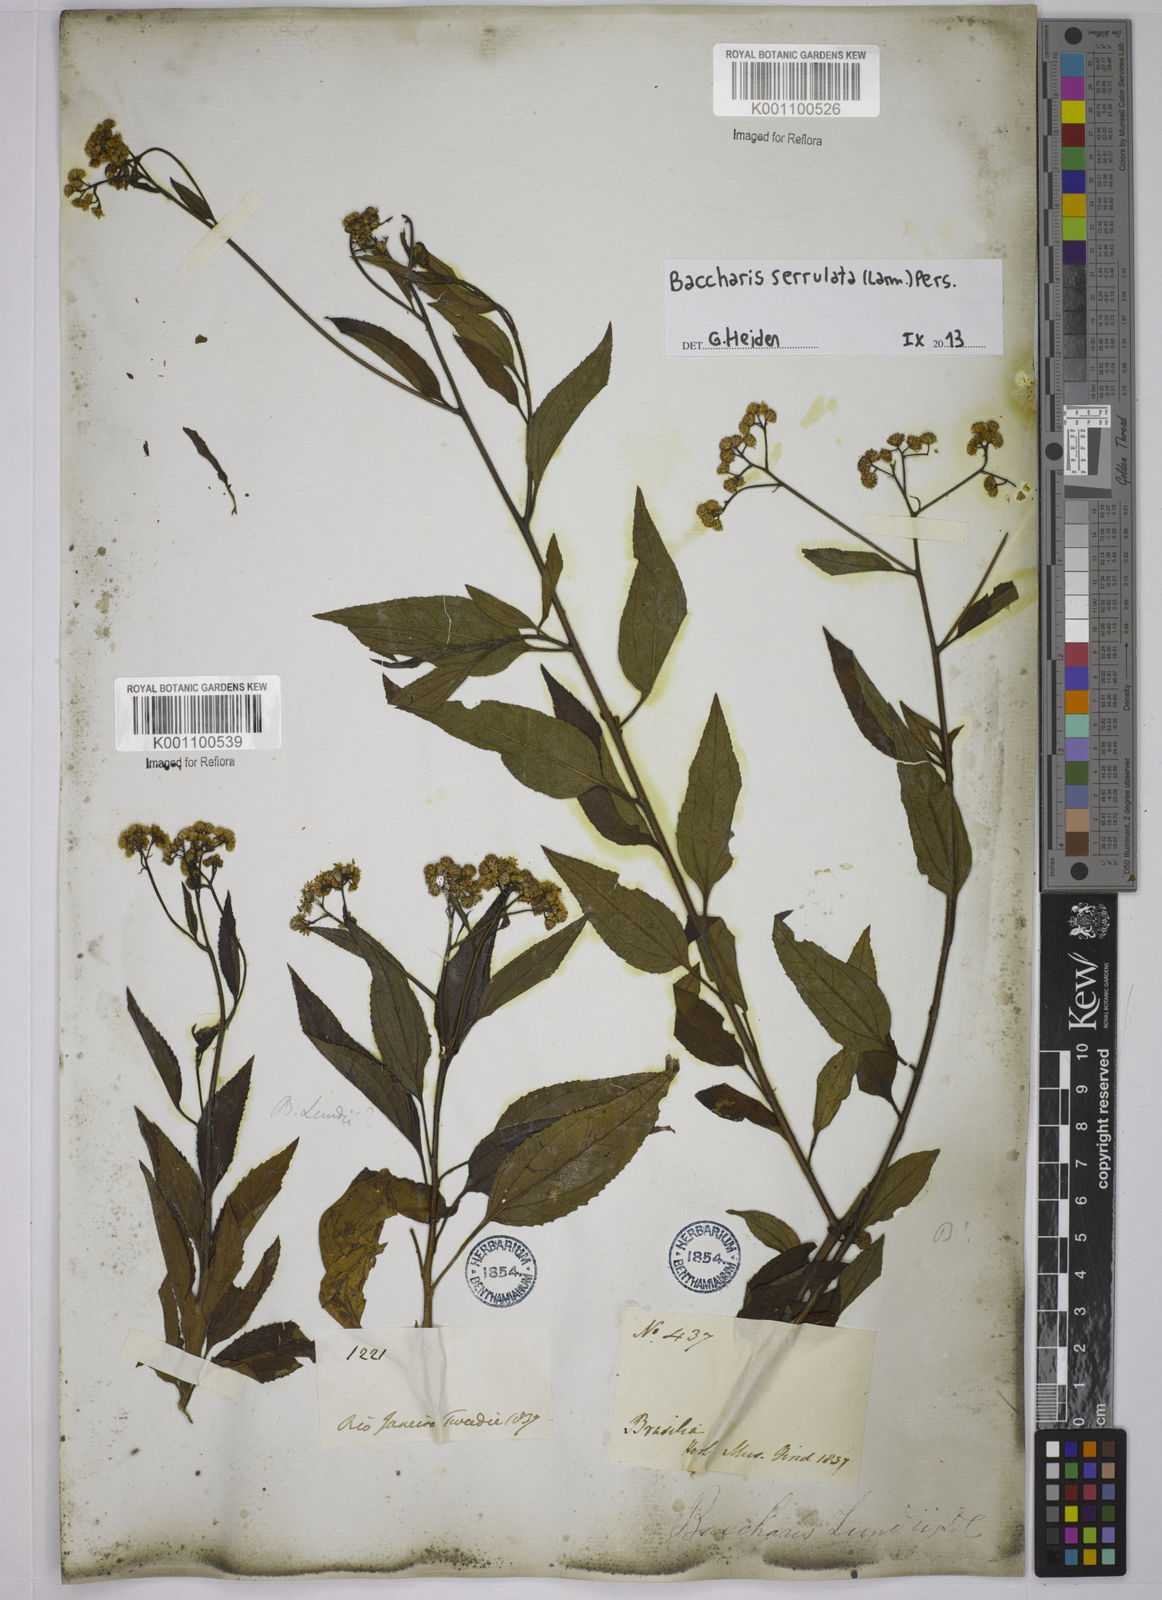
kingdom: Plantae
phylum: Tracheophyta
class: Magnoliopsida
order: Asterales
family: Asteraceae
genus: Baccharis
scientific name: Baccharis serrulata
